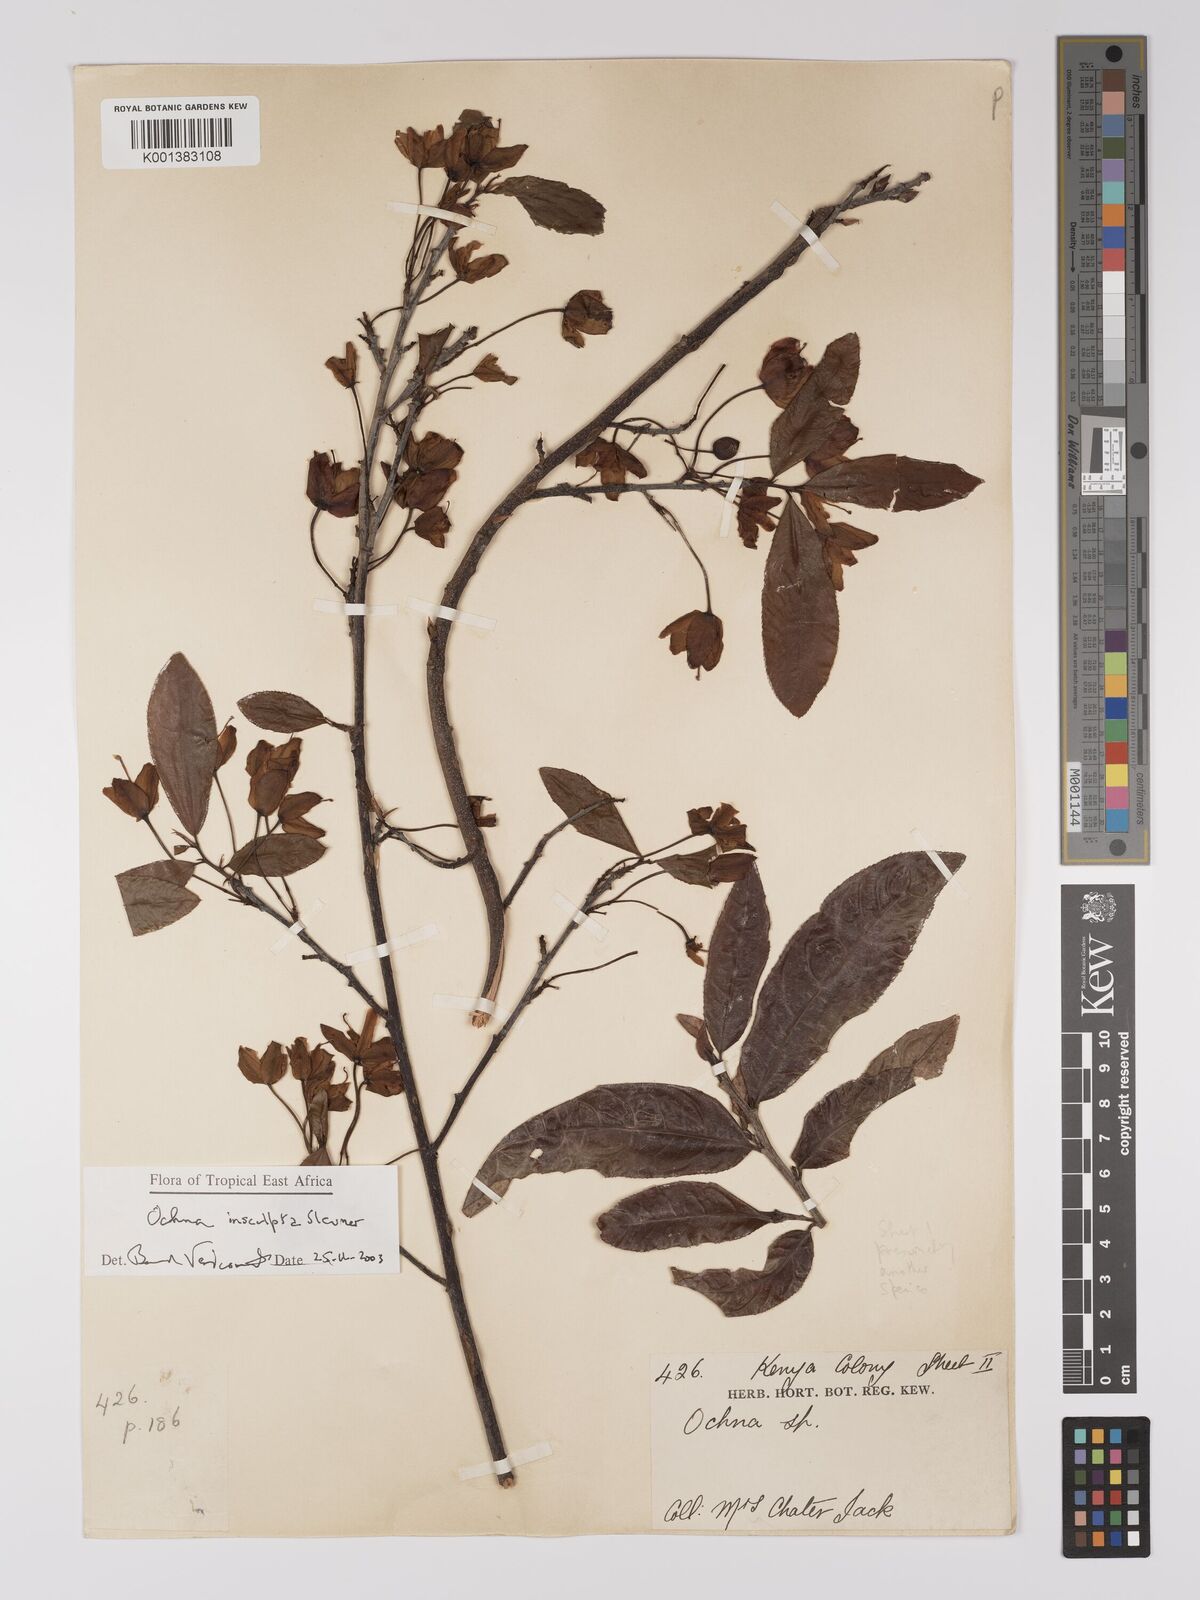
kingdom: Plantae
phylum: Tracheophyta
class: Magnoliopsida
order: Malpighiales
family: Ochnaceae
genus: Ochna
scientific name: Ochna insculpta
